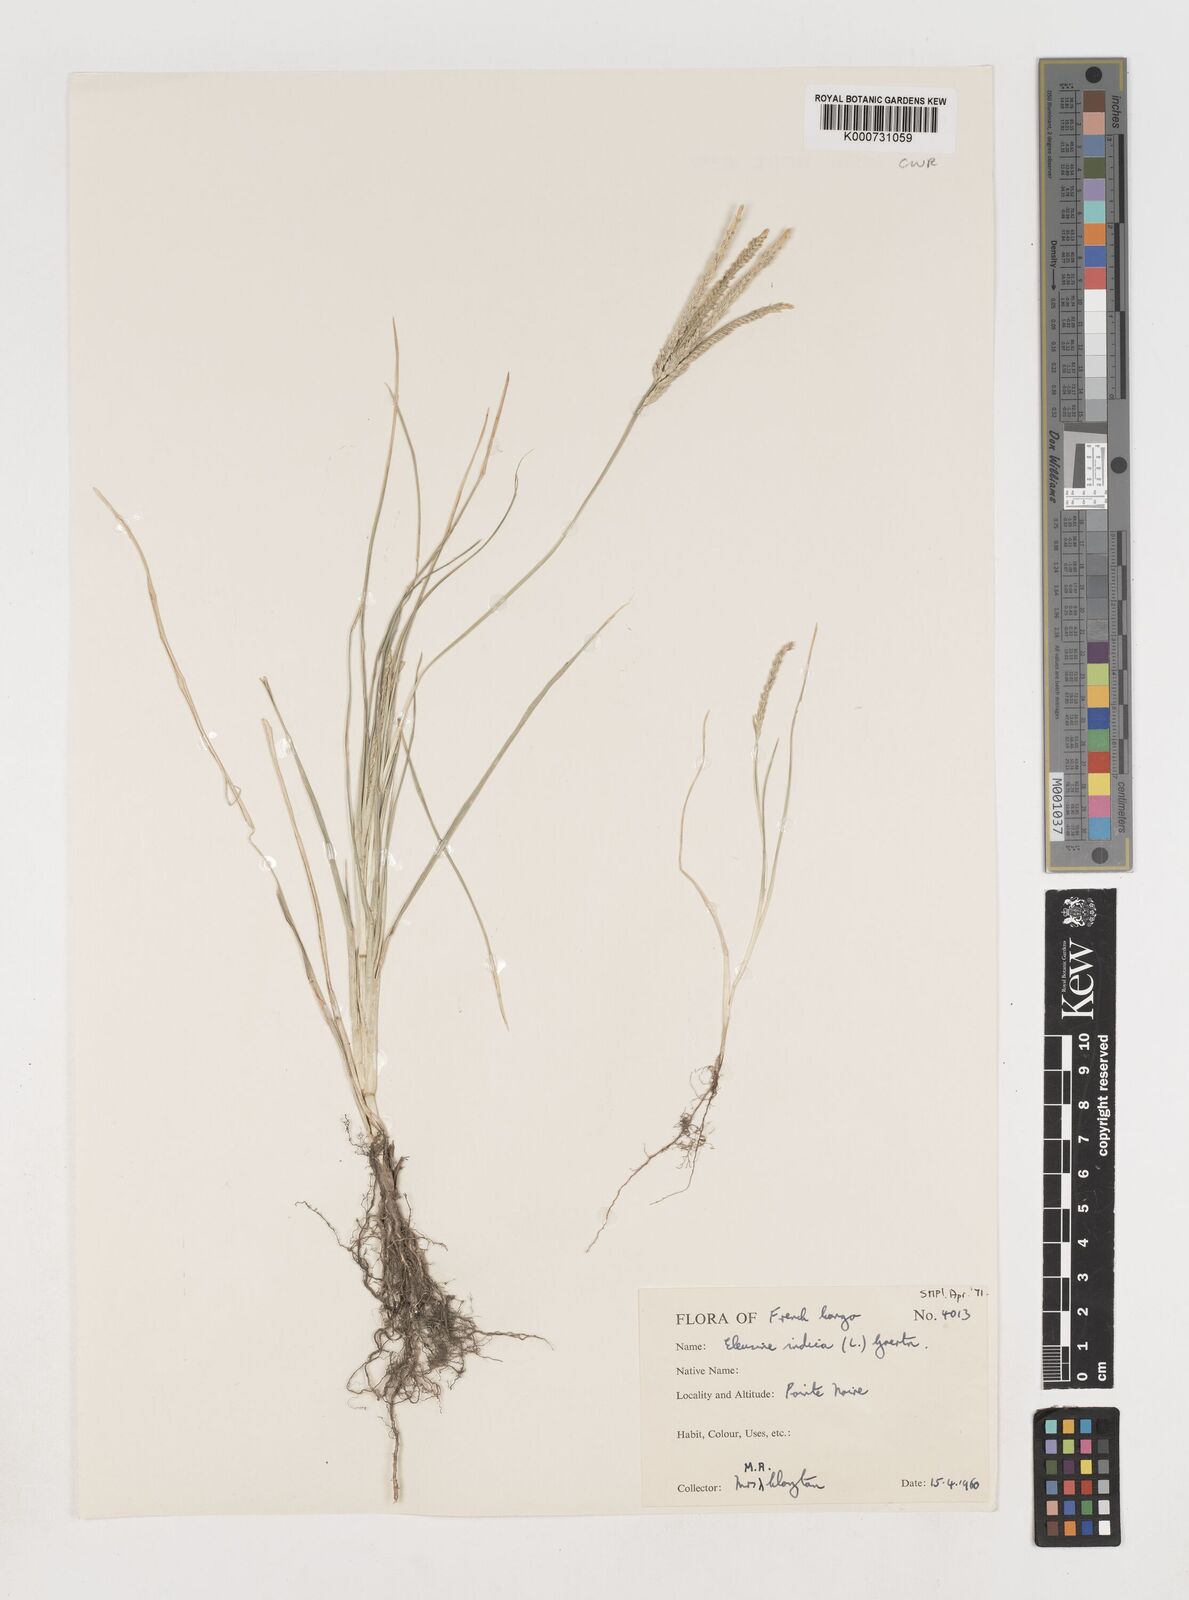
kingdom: Plantae
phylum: Tracheophyta
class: Liliopsida
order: Poales
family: Poaceae
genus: Eleusine
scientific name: Eleusine indica
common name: Yard-grass
